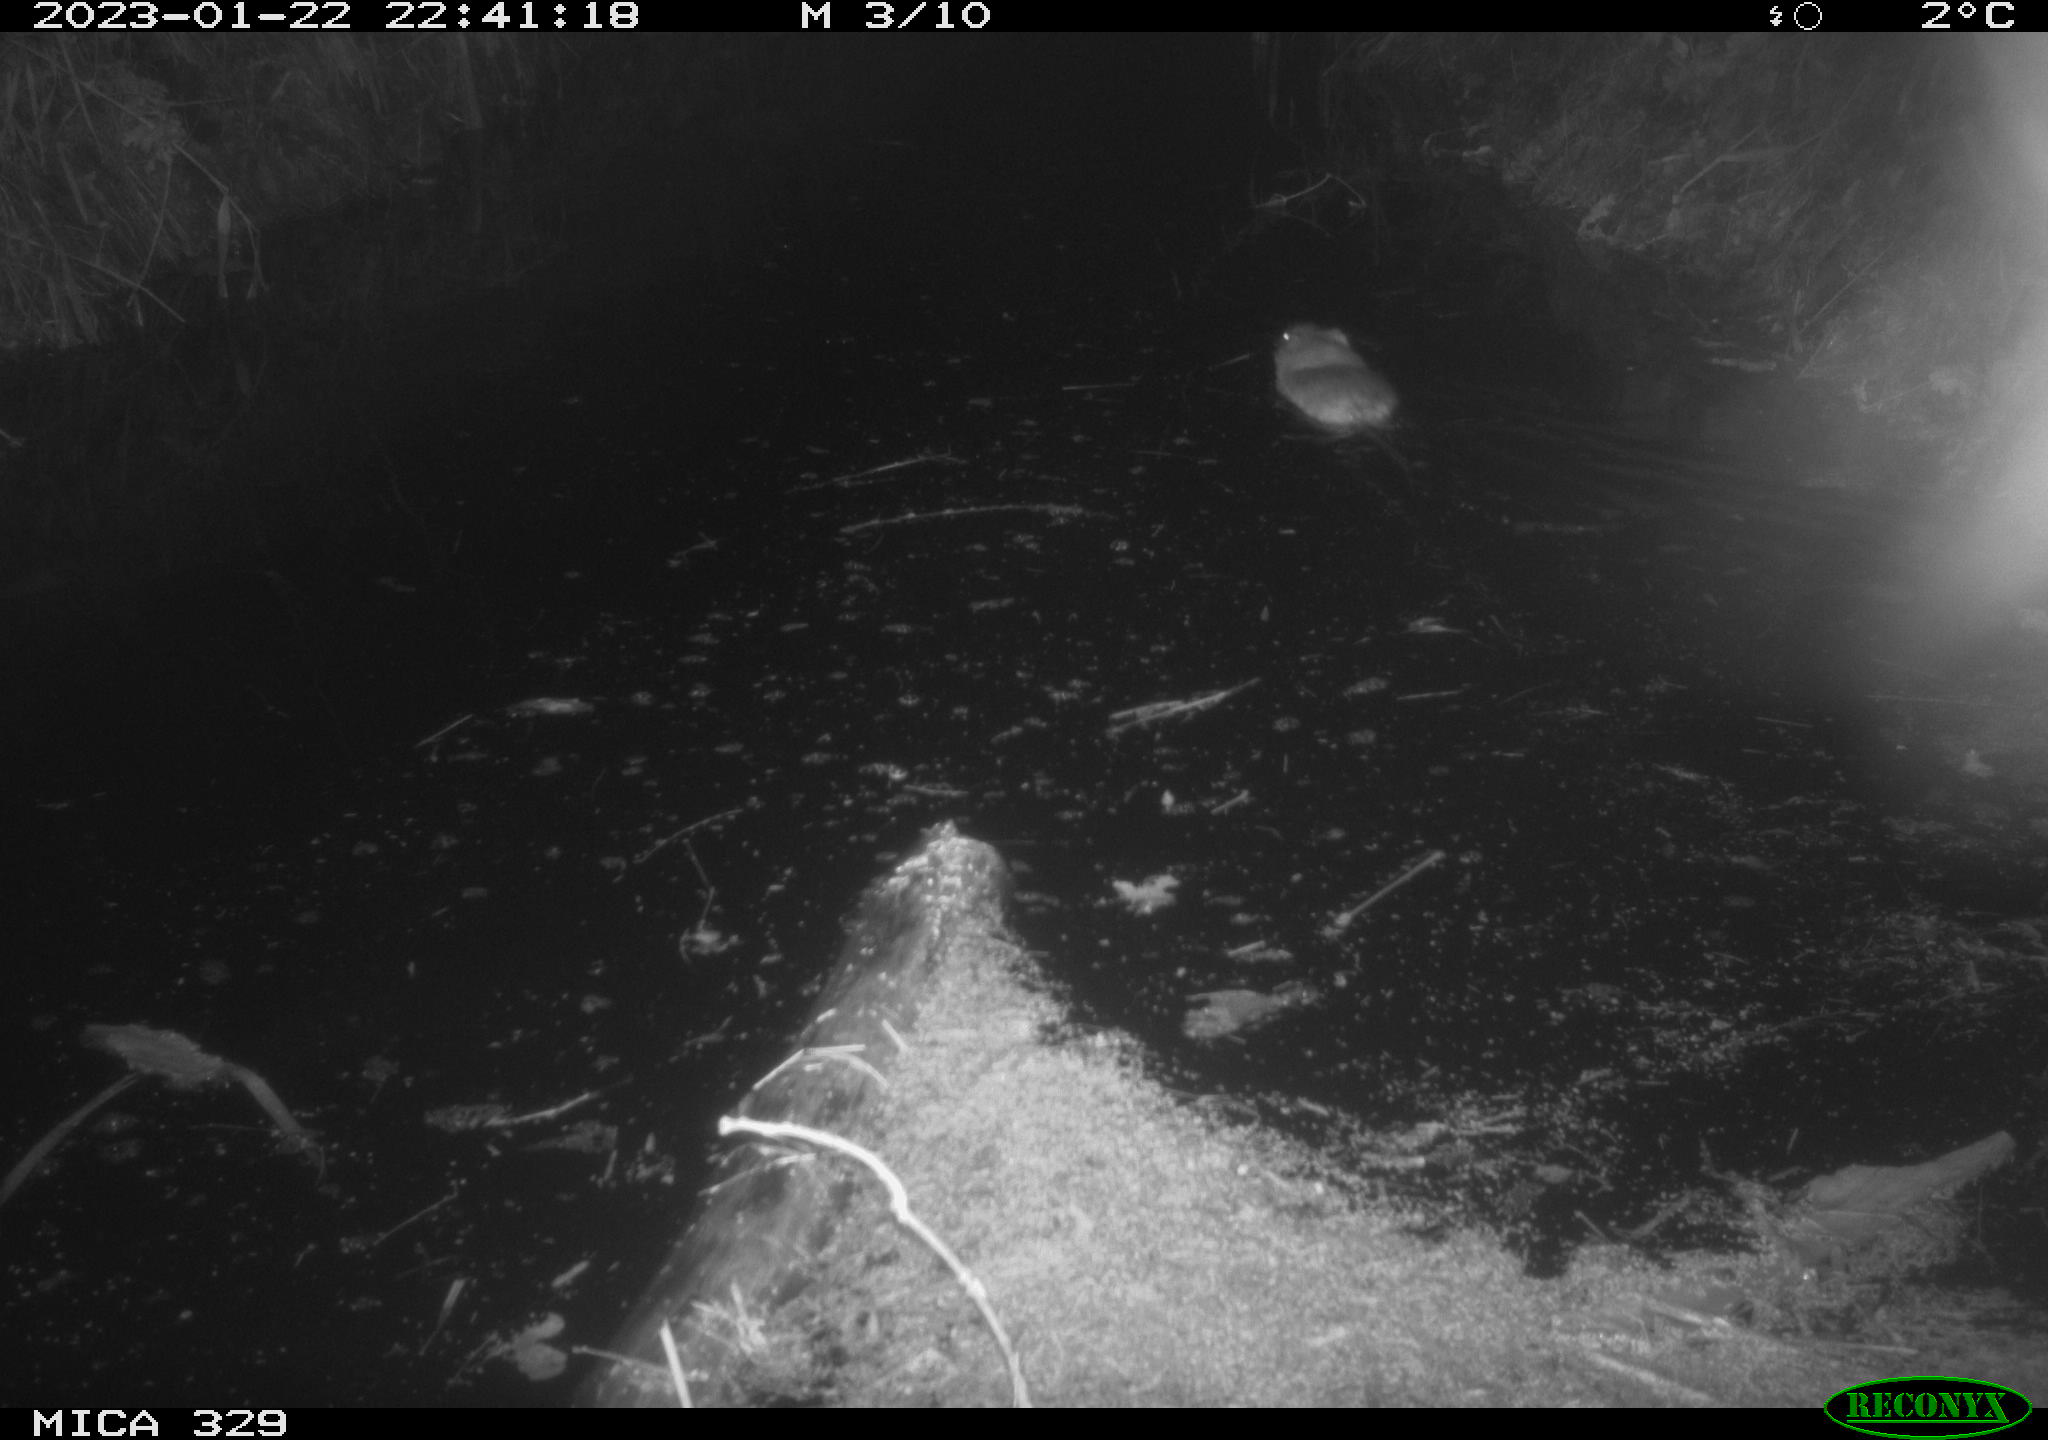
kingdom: Animalia
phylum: Chordata
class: Mammalia
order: Rodentia
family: Cricetidae
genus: Ondatra
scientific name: Ondatra zibethicus
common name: Muskrat
